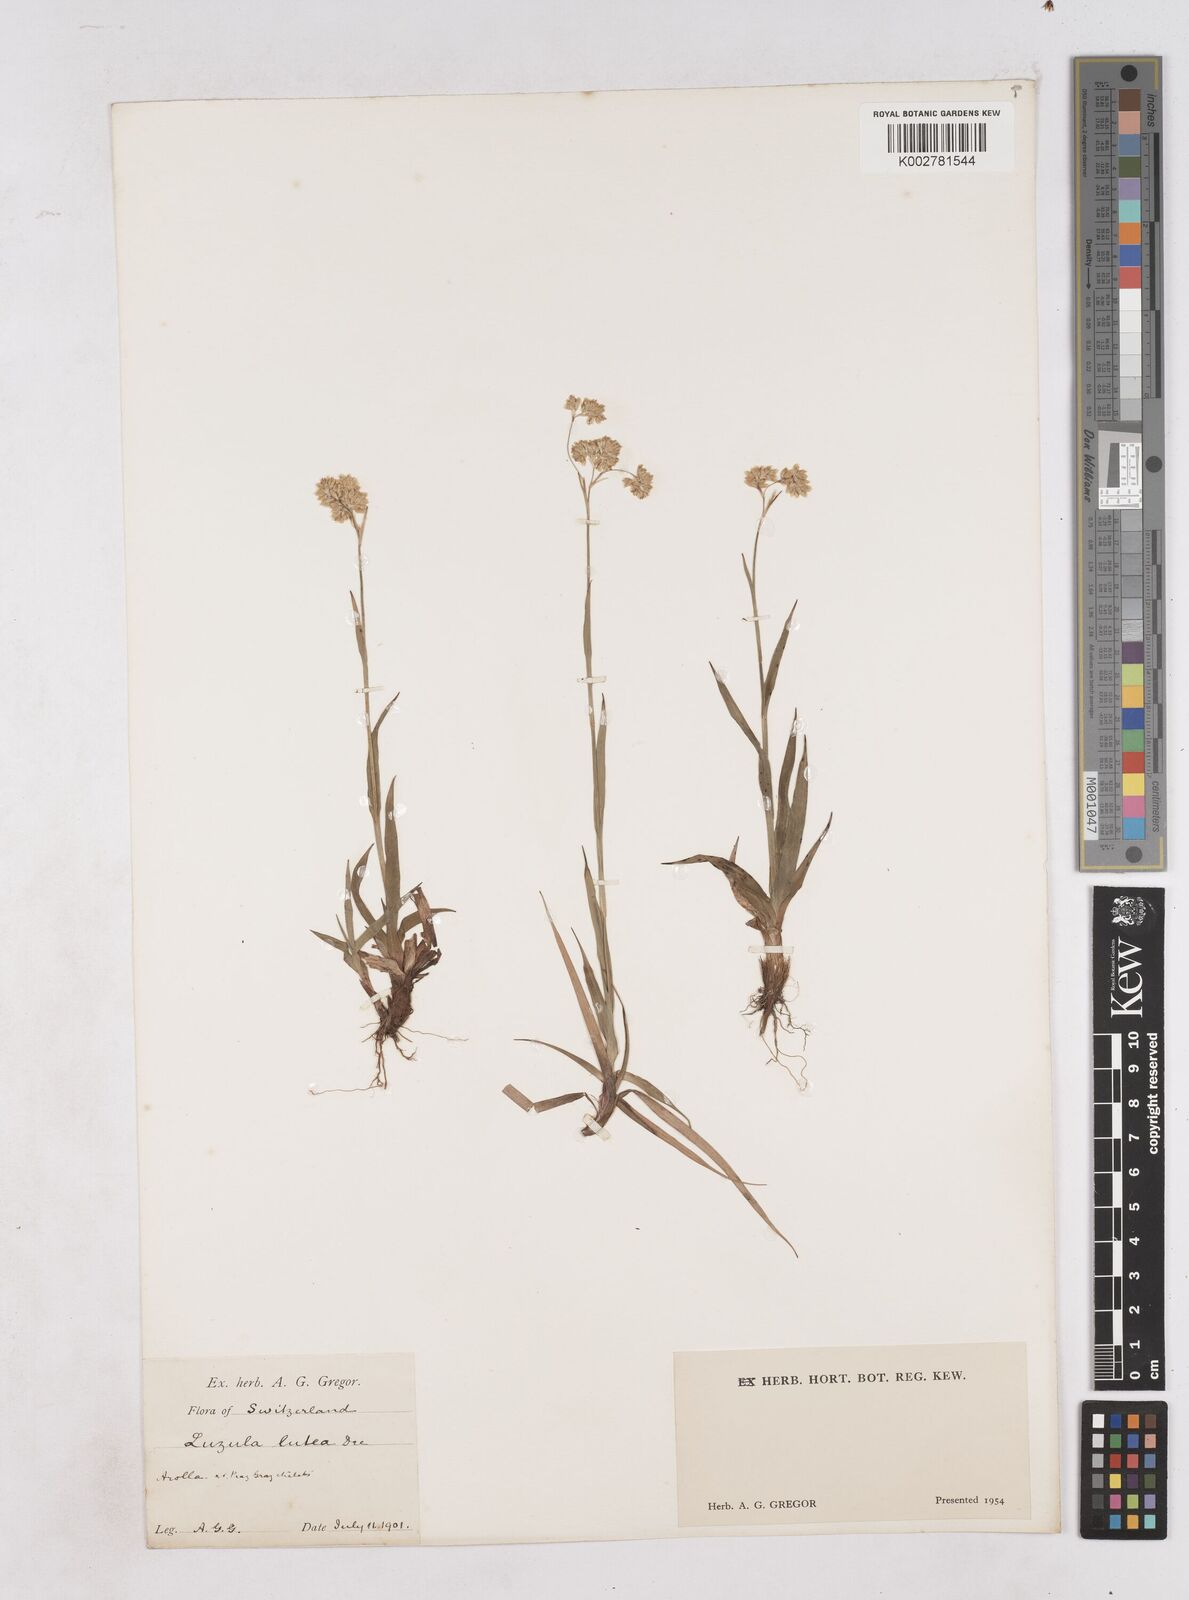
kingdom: Plantae
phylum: Tracheophyta
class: Liliopsida
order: Poales
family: Juncaceae
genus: Luzula
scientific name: Luzula lutea
